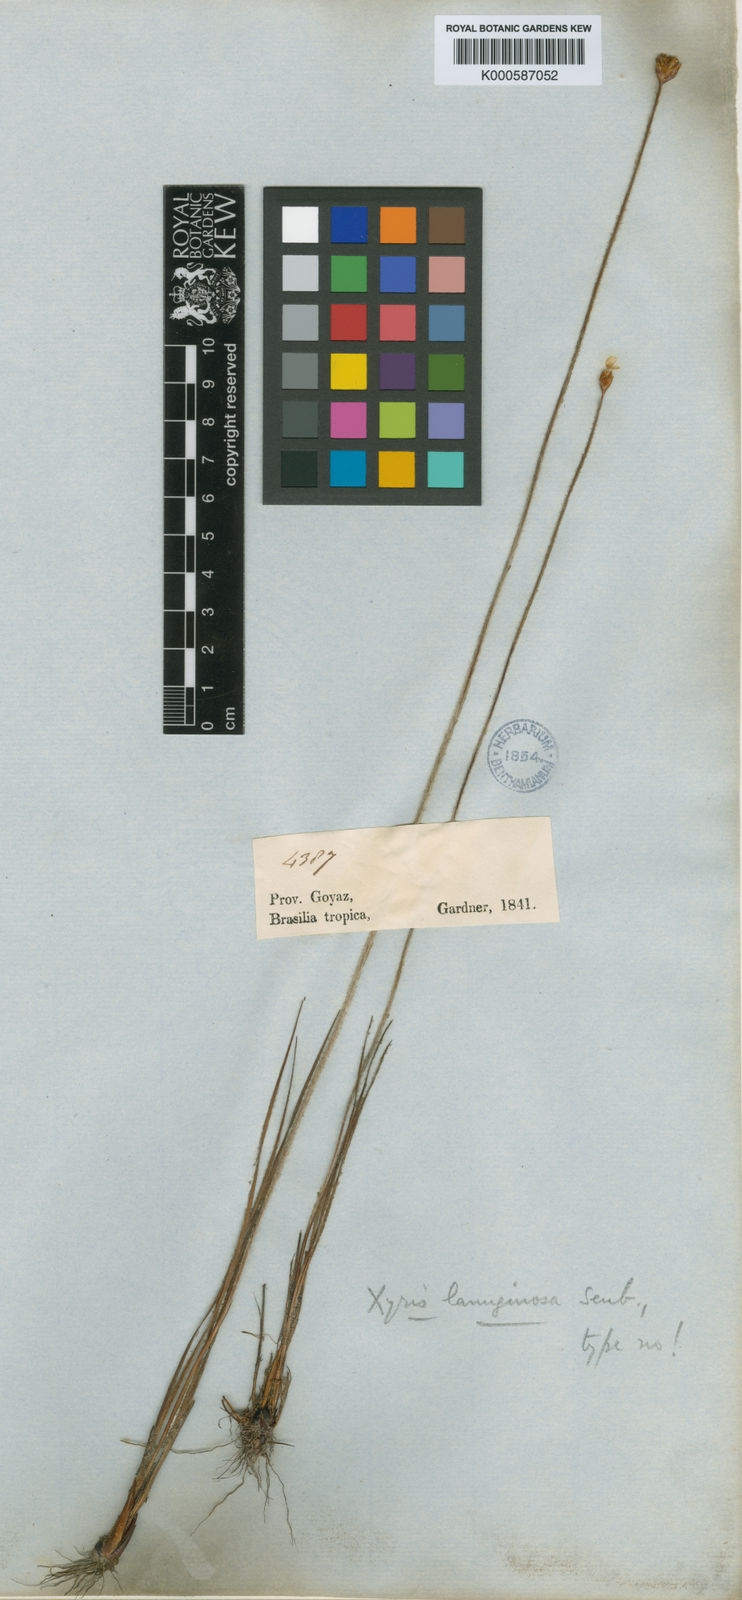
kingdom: Plantae
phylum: Tracheophyta
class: Liliopsida
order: Poales
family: Xyridaceae
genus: Xyris
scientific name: Xyris lanuginosa
